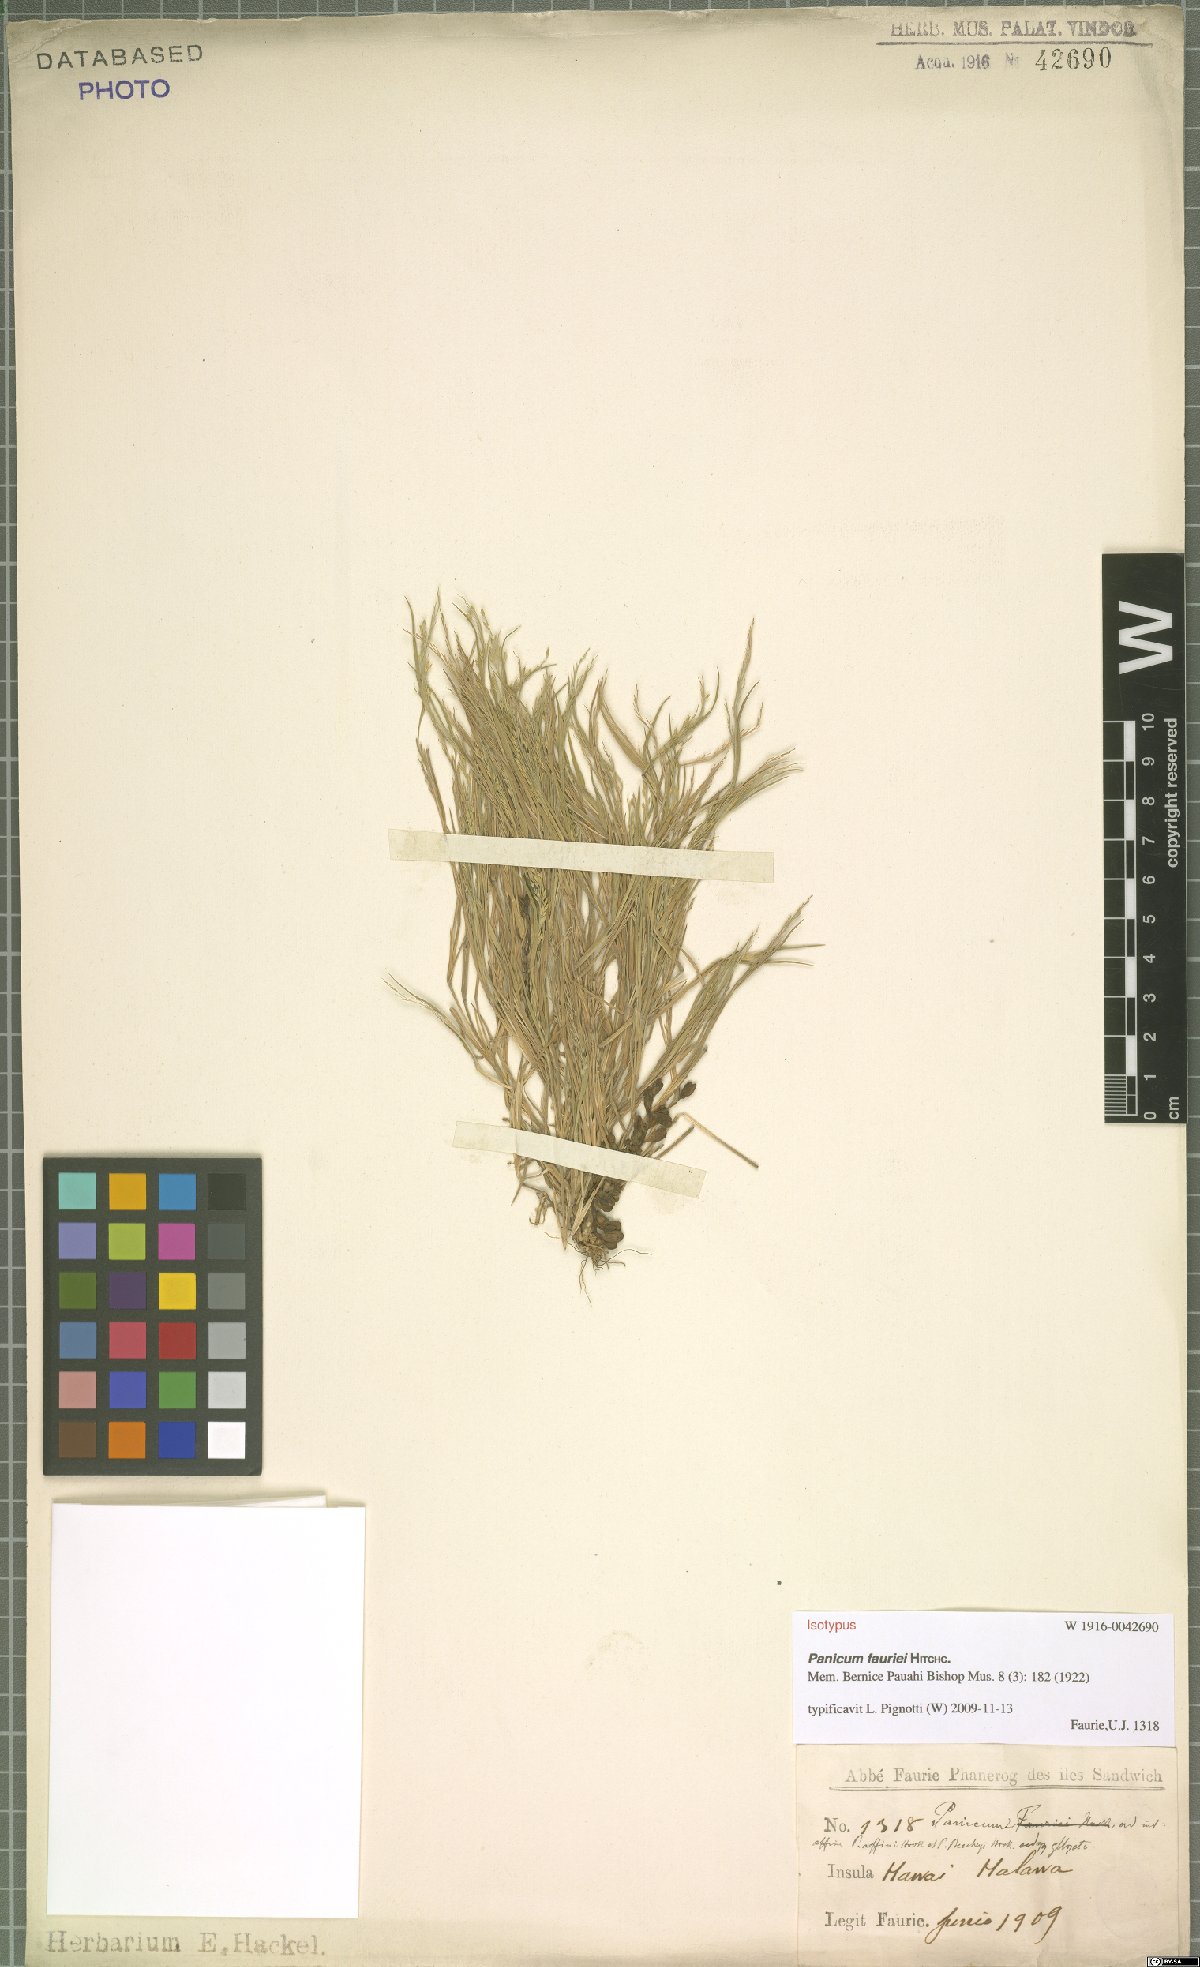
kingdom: Plantae
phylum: Tracheophyta
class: Liliopsida
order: Poales
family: Poaceae
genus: Panicum
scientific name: Panicum fauriei
